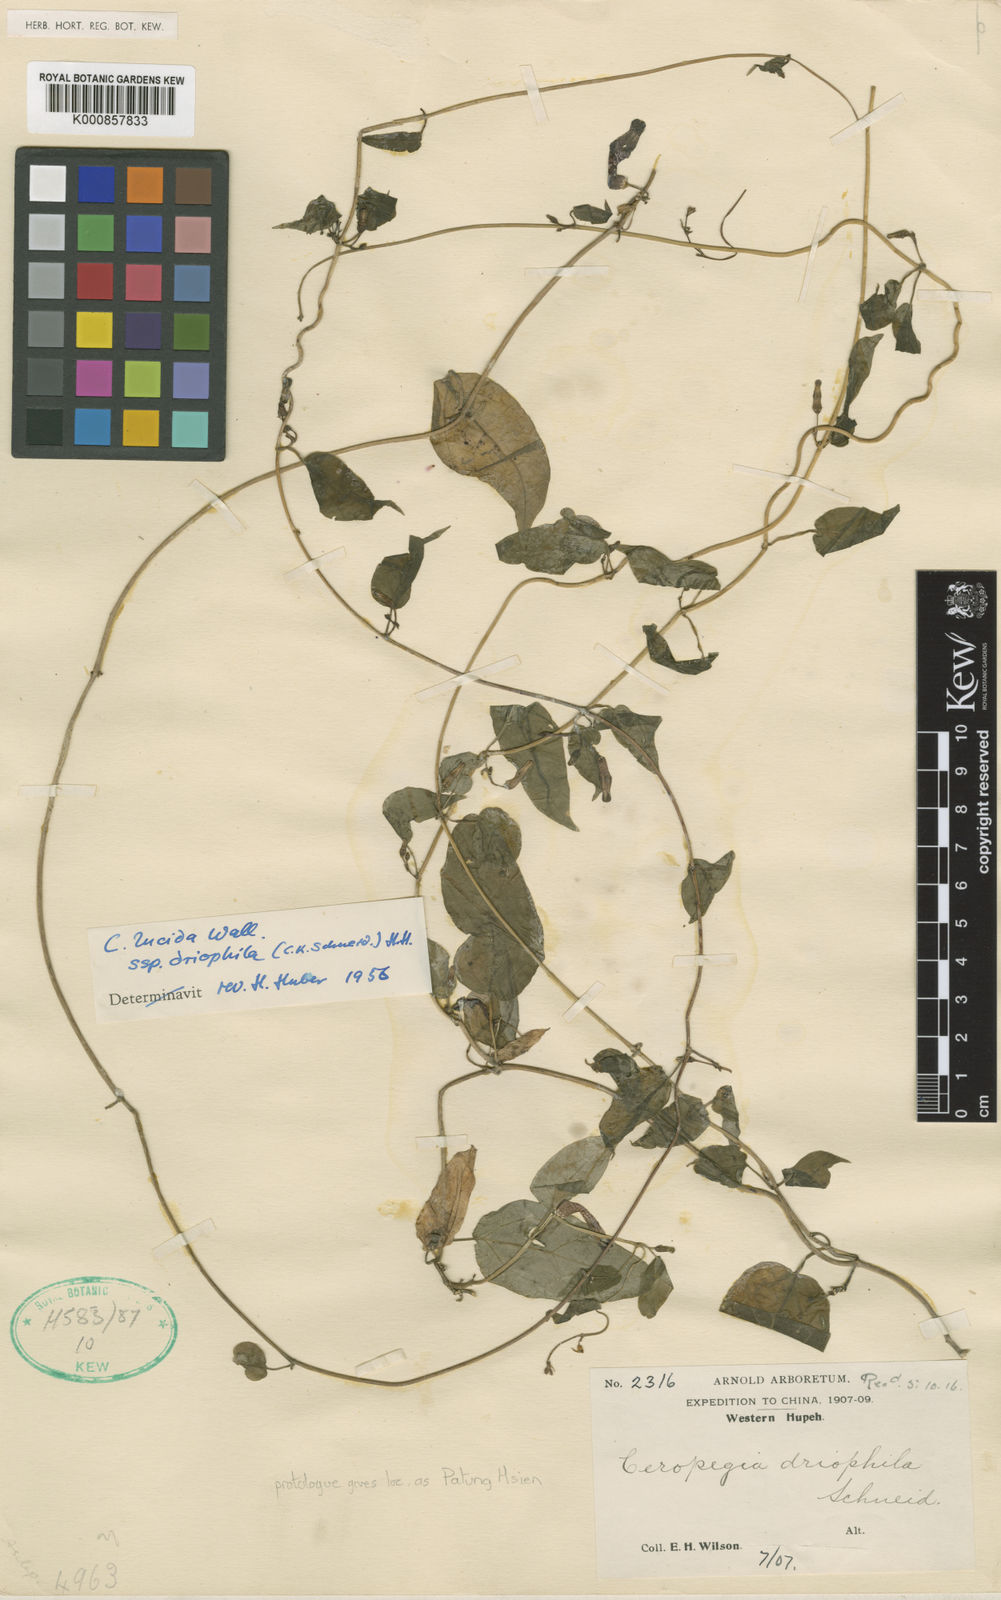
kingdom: Plantae
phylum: Tracheophyta
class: Magnoliopsida
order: Gentianales
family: Apocynaceae
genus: Ceropegia
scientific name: Ceropegia lucida
